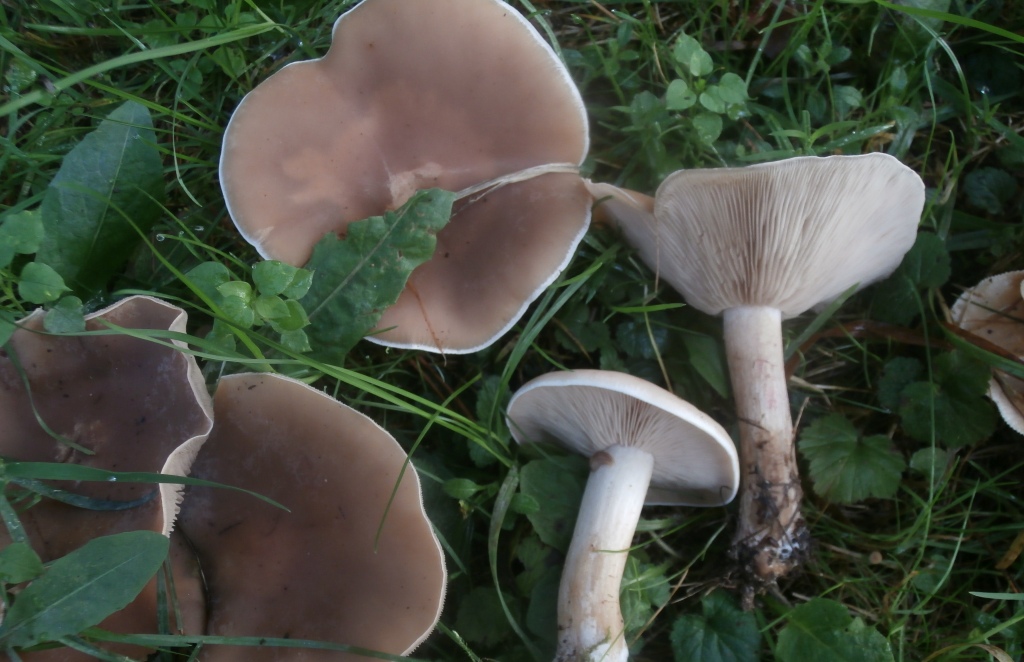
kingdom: Fungi
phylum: Basidiomycota
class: Agaricomycetes
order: Agaricales
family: Tricholomataceae
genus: Lepista
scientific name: Lepista personata
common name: bleg hekseringshat
